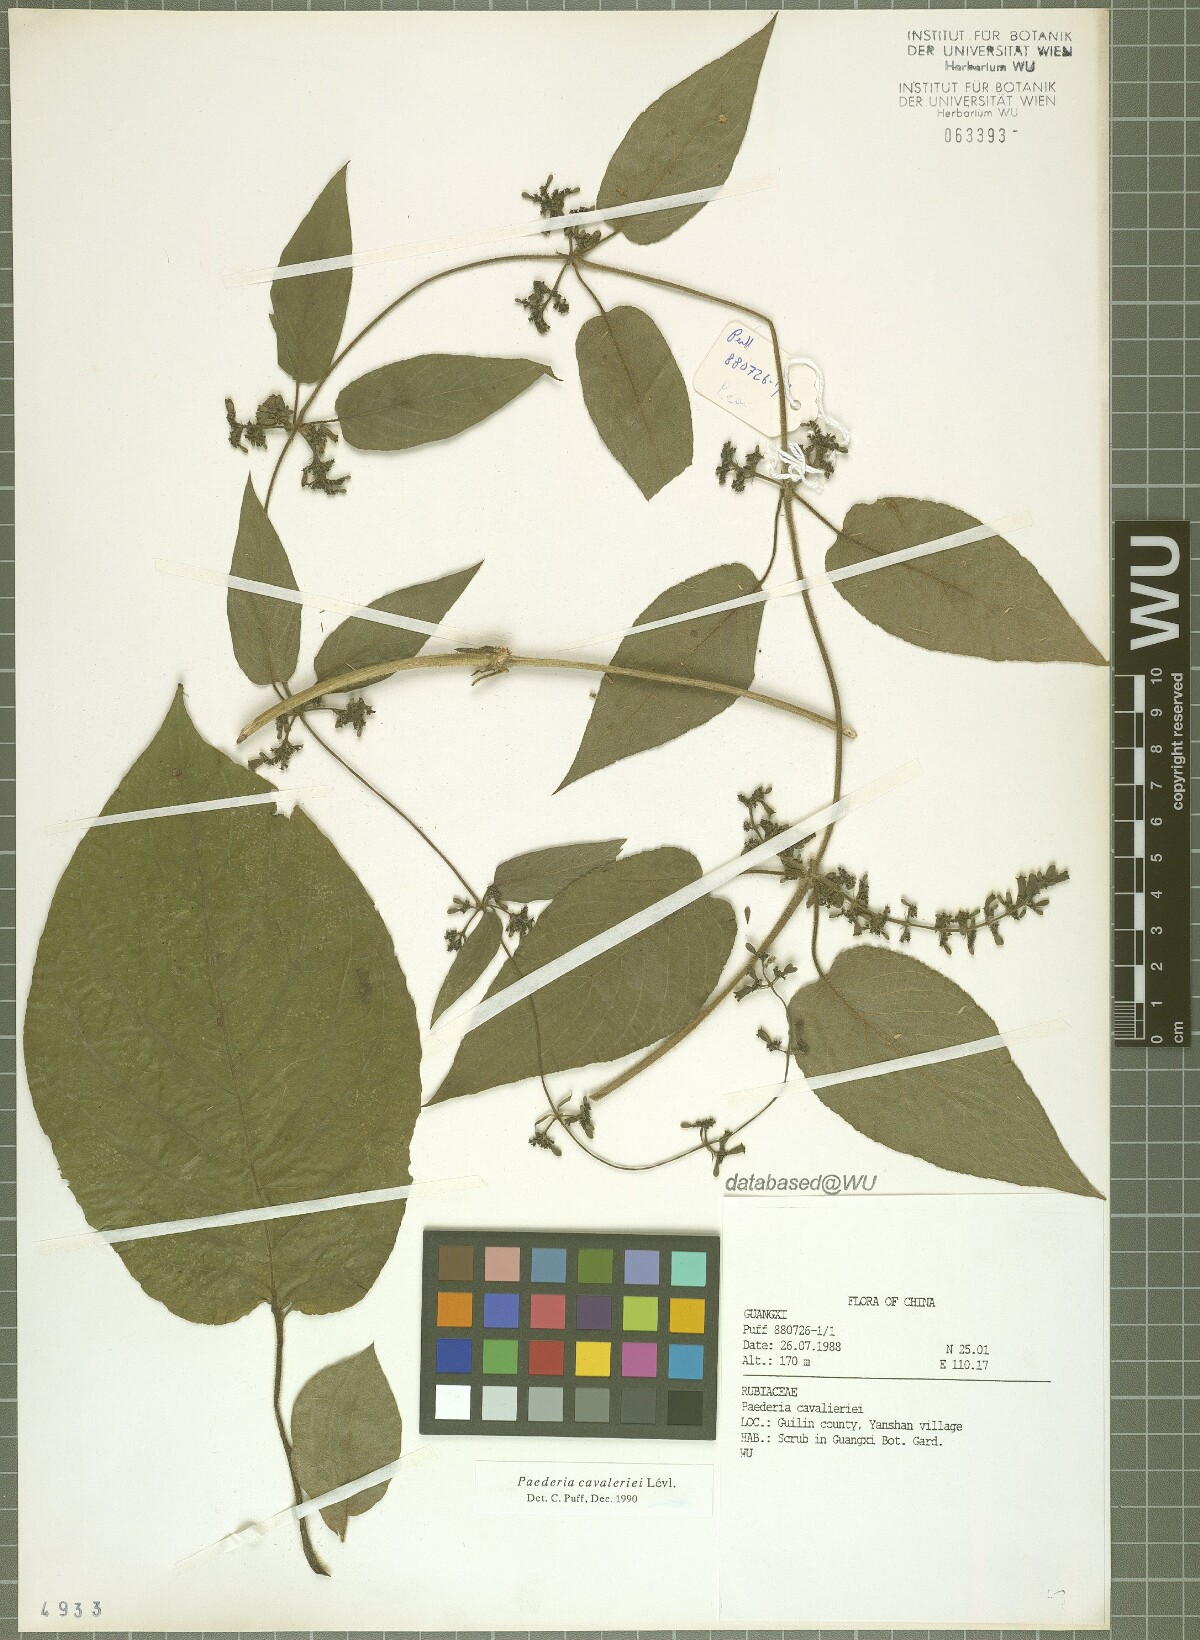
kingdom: Plantae
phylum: Tracheophyta
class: Magnoliopsida
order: Gentianales
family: Rubiaceae
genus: Paederia
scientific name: Paederia cavaleriei
